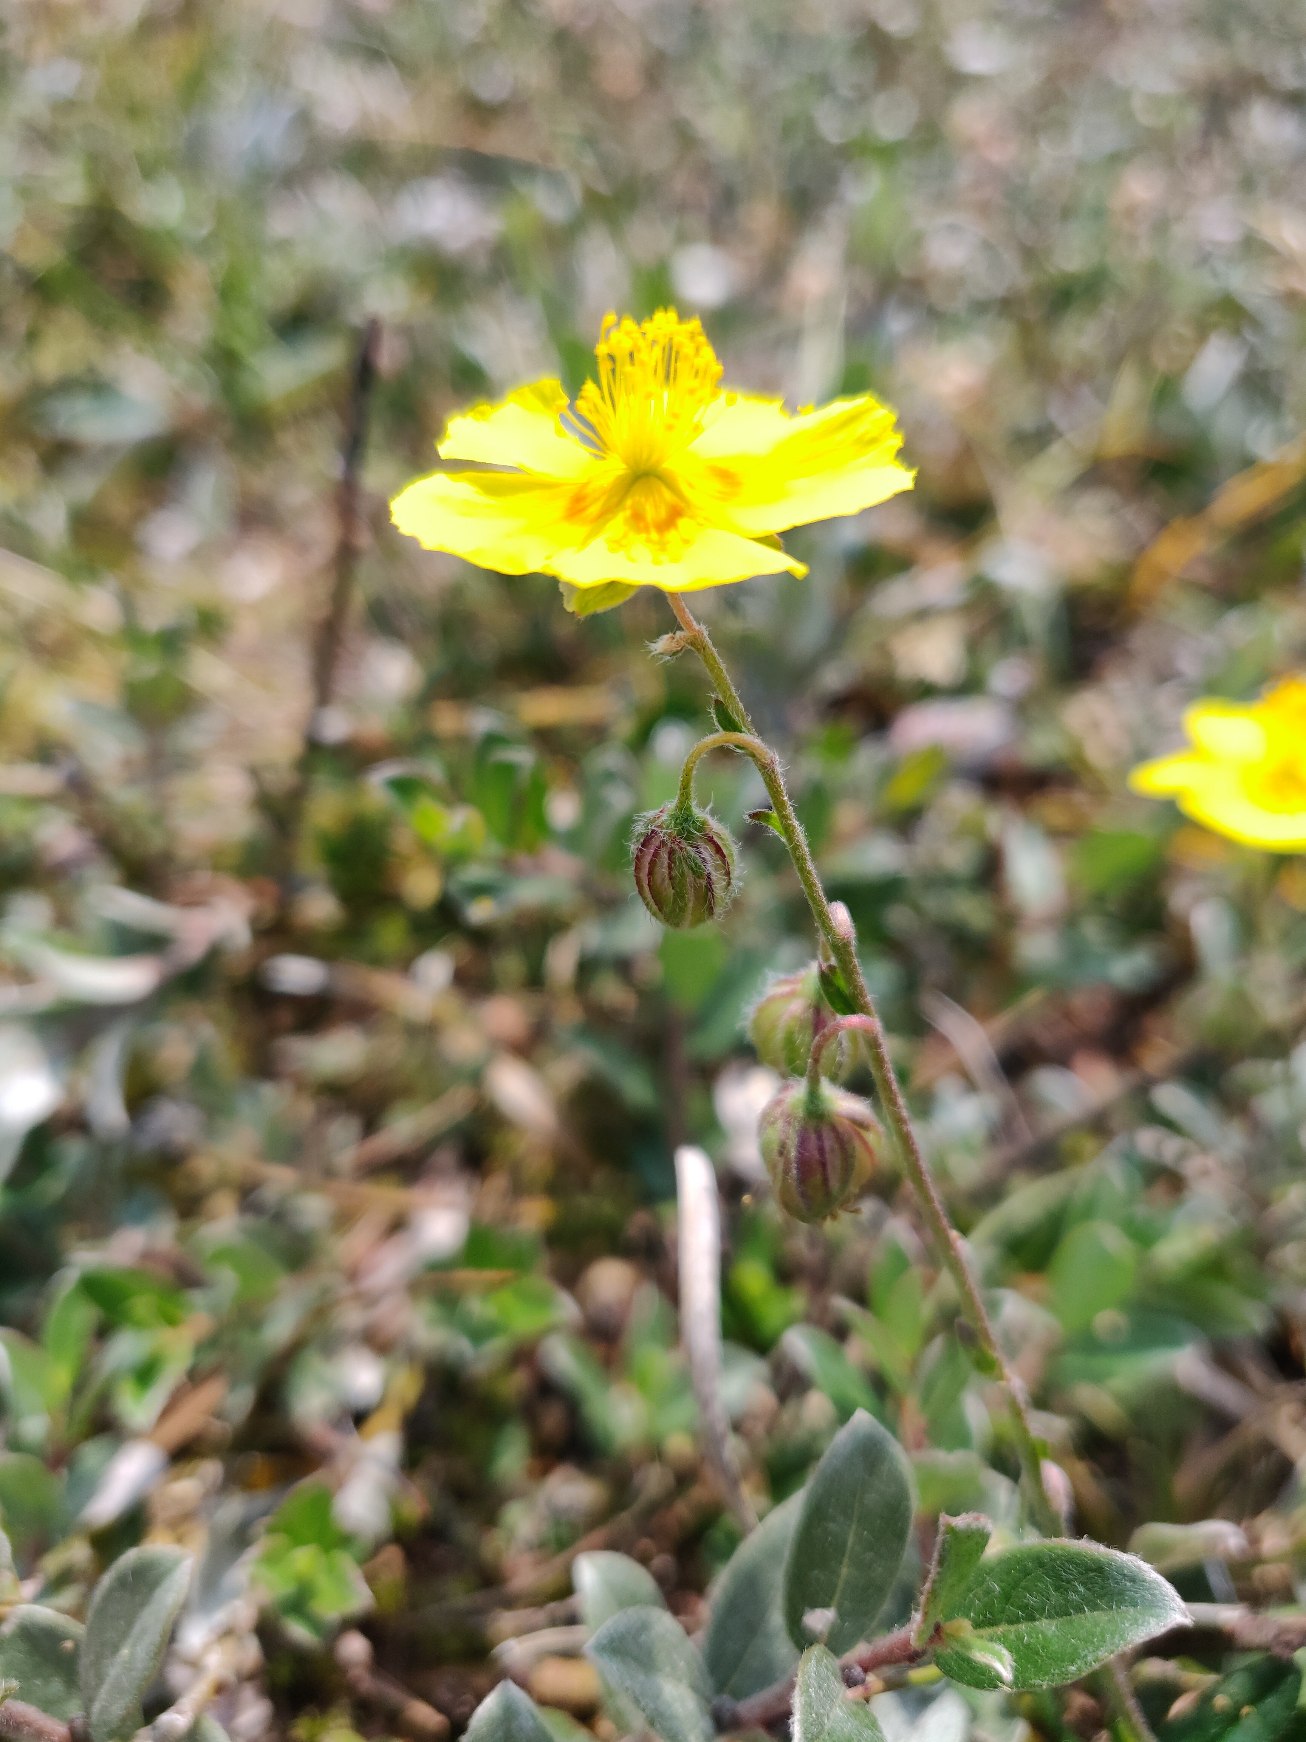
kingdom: Plantae
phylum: Tracheophyta
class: Magnoliopsida
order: Malvales
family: Cistaceae
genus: Helianthemum
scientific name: Helianthemum nummularium
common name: Soløje
